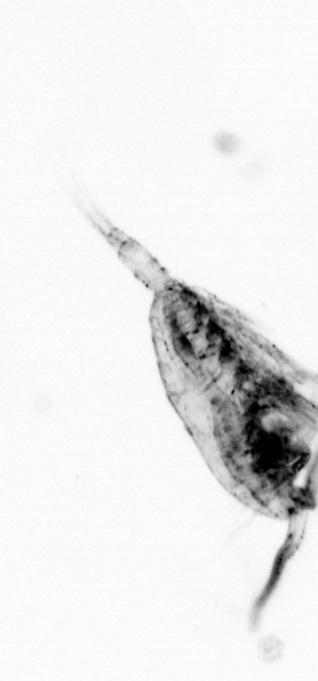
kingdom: Animalia
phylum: Arthropoda
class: Copepoda
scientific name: Copepoda
